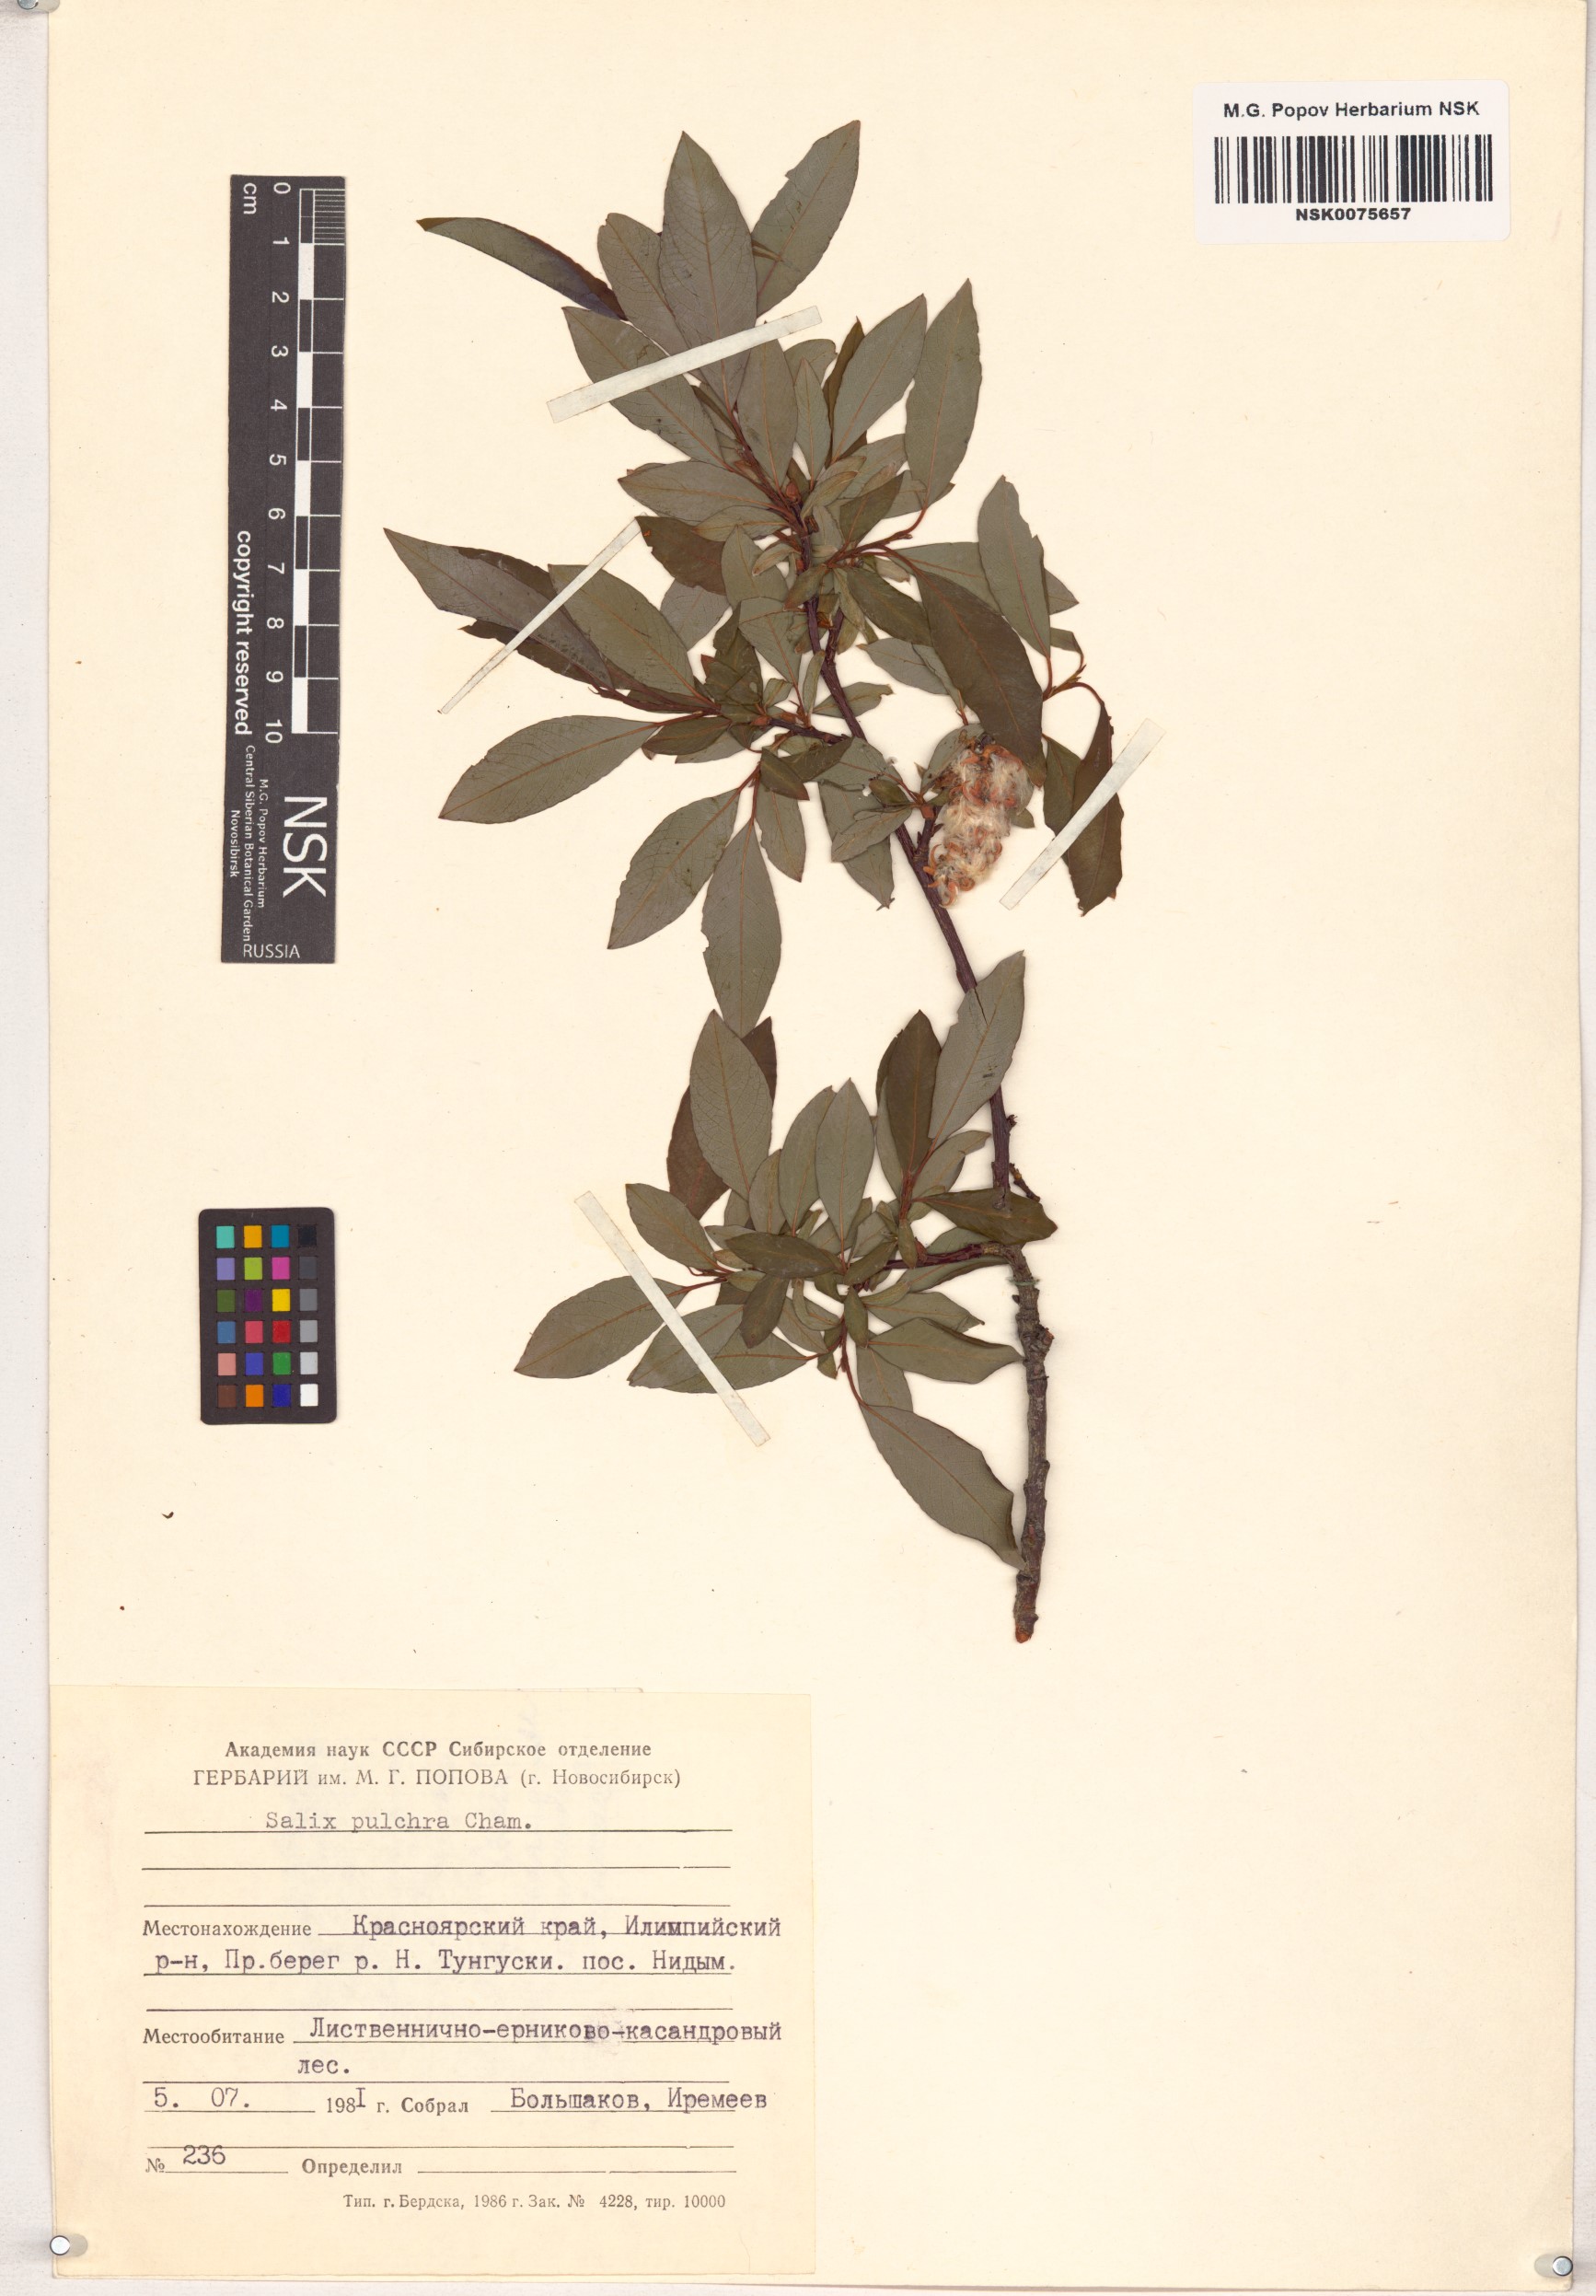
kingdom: Plantae
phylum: Tracheophyta
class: Magnoliopsida
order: Malpighiales
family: Salicaceae
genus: Salix
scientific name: Salix pulchra
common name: Diamond-leaved willow
